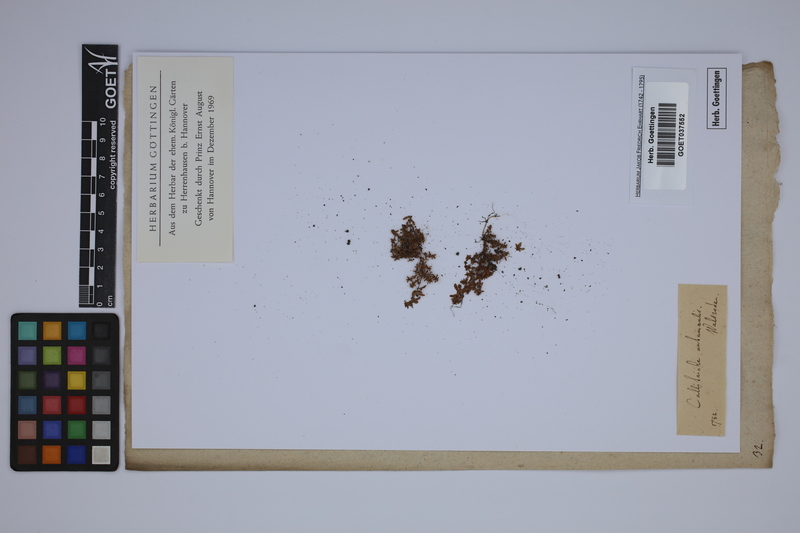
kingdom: Plantae
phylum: Tracheophyta
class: Magnoliopsida
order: Lamiales
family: Plantaginaceae
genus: Callitriche
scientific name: Callitriche hermaphroditica
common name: Autumnal water-starwort
